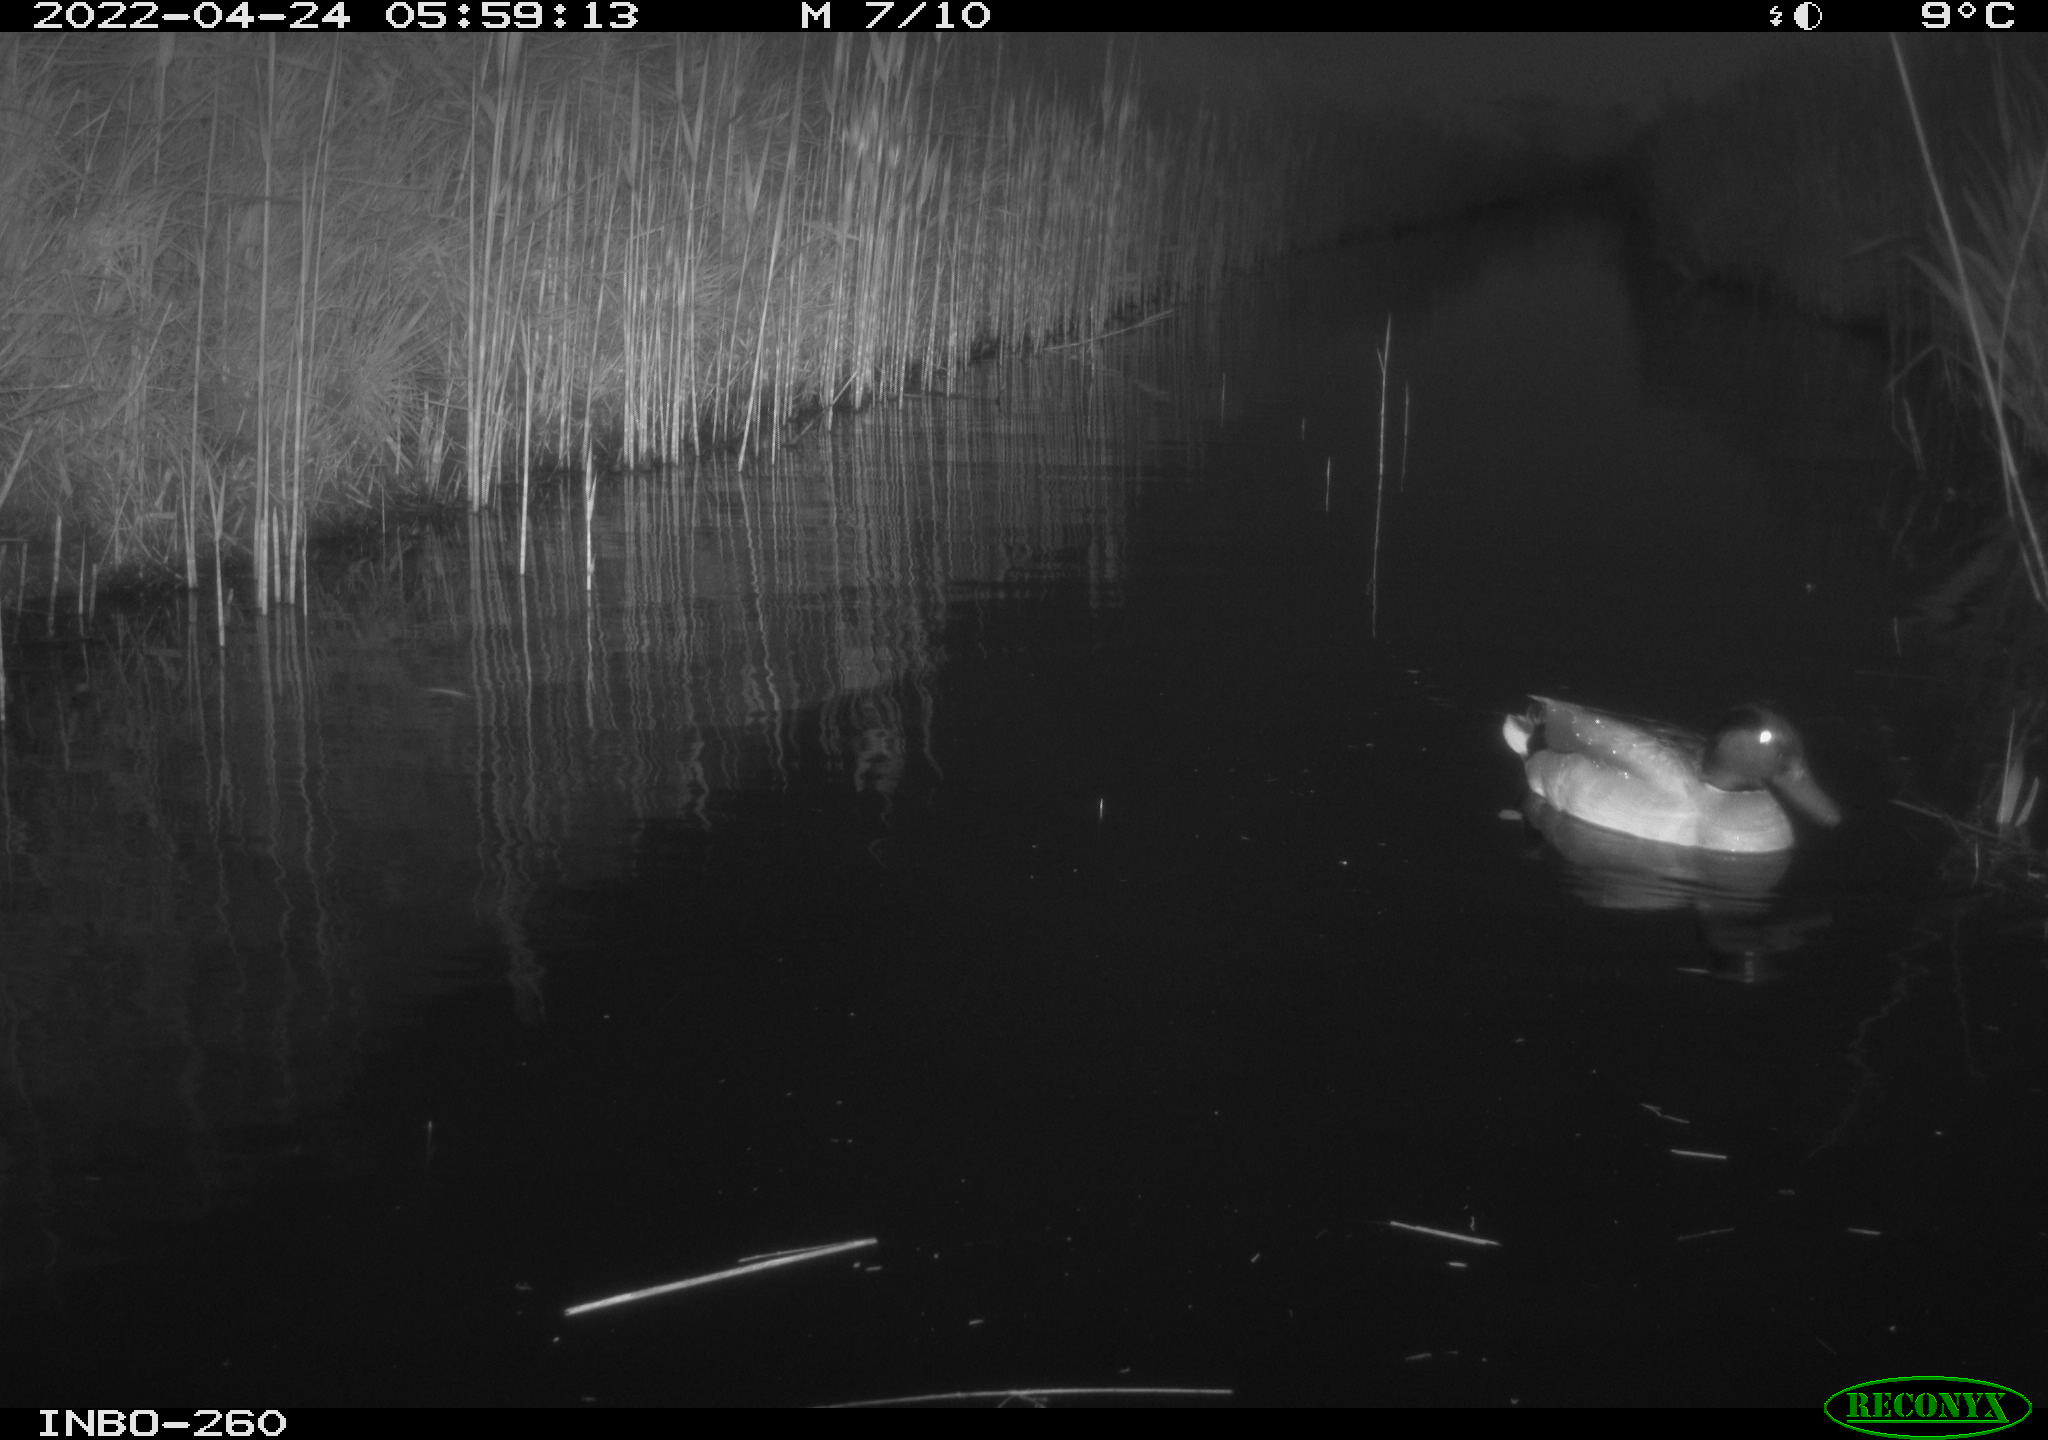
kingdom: Animalia
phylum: Chordata
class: Aves
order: Anseriformes
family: Anatidae
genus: Anas
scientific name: Anas platyrhynchos
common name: Mallard
